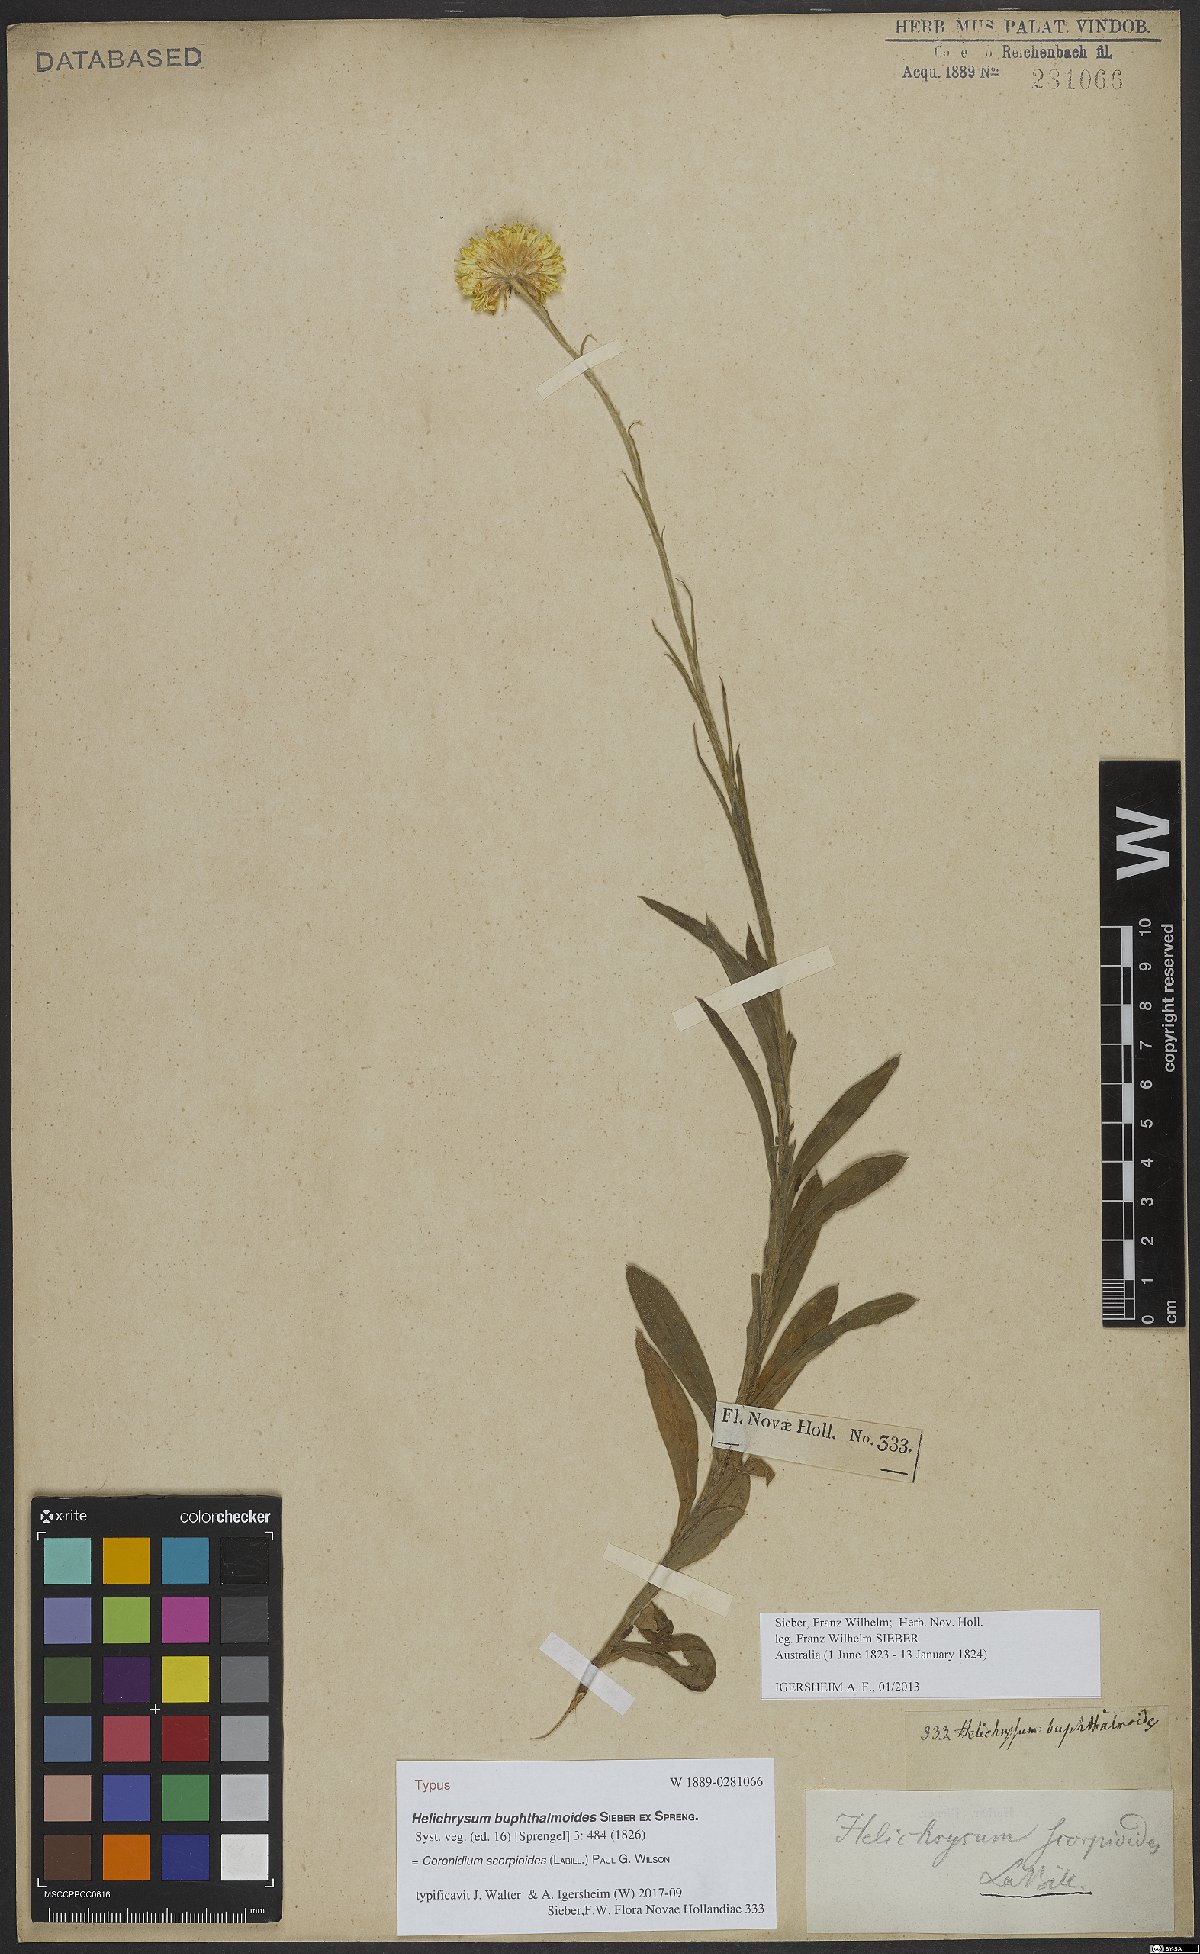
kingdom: Plantae
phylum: Tracheophyta
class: Magnoliopsida
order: Asterales
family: Asteraceae
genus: Coronidium
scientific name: Coronidium scorpioides
